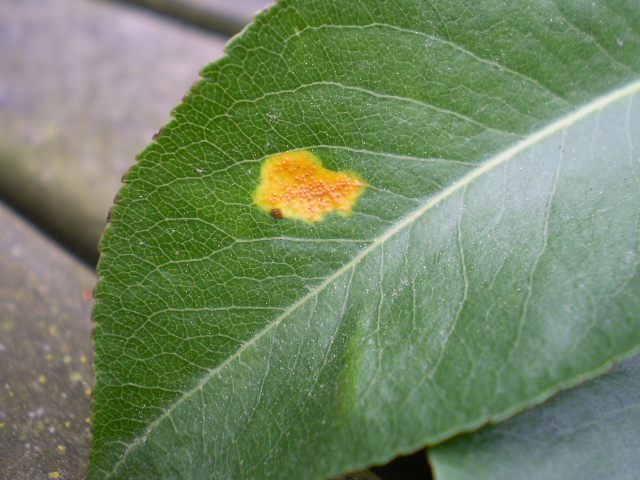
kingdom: Fungi
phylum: Basidiomycota
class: Pucciniomycetes
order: Pucciniales
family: Gymnosporangiaceae
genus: Gymnosporangium
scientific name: Gymnosporangium sabinae
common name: pæregitter-bævrerust
